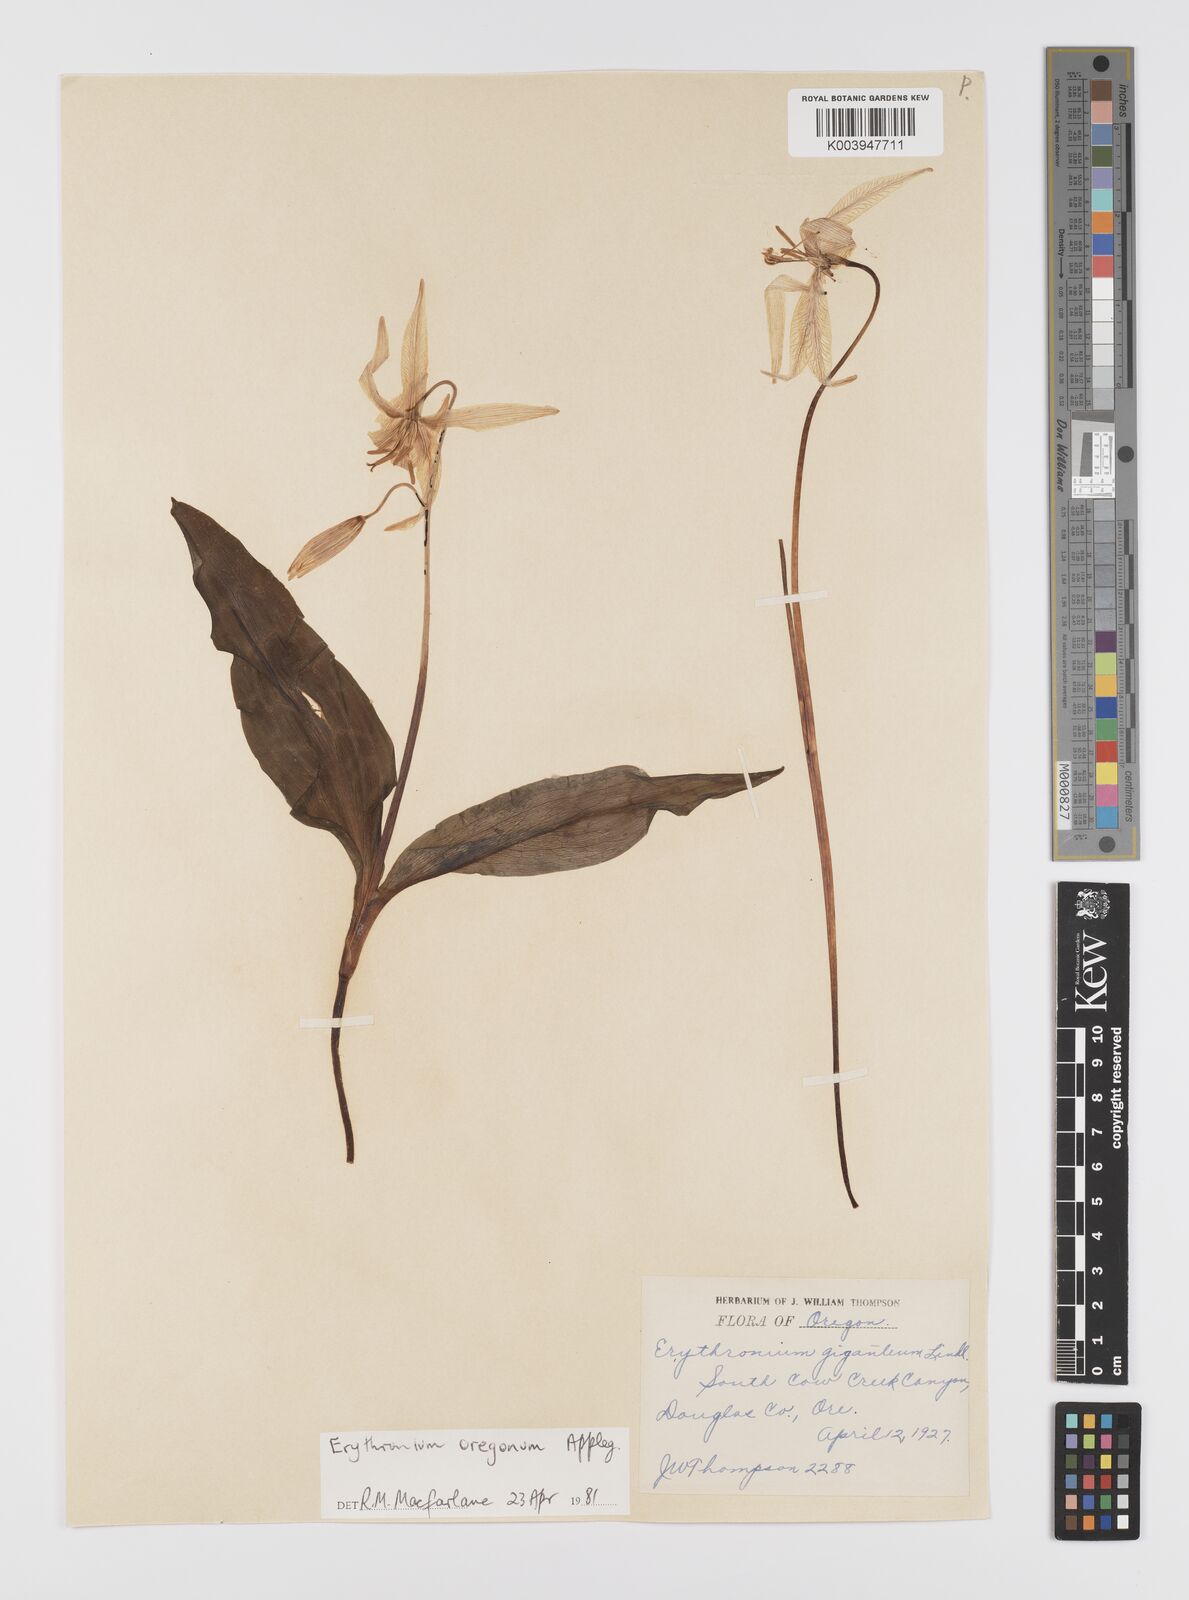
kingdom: Plantae
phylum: Tracheophyta
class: Liliopsida
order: Liliales
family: Liliaceae
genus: Erythronium
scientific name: Erythronium oregonum
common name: Giant adder's-tongue
